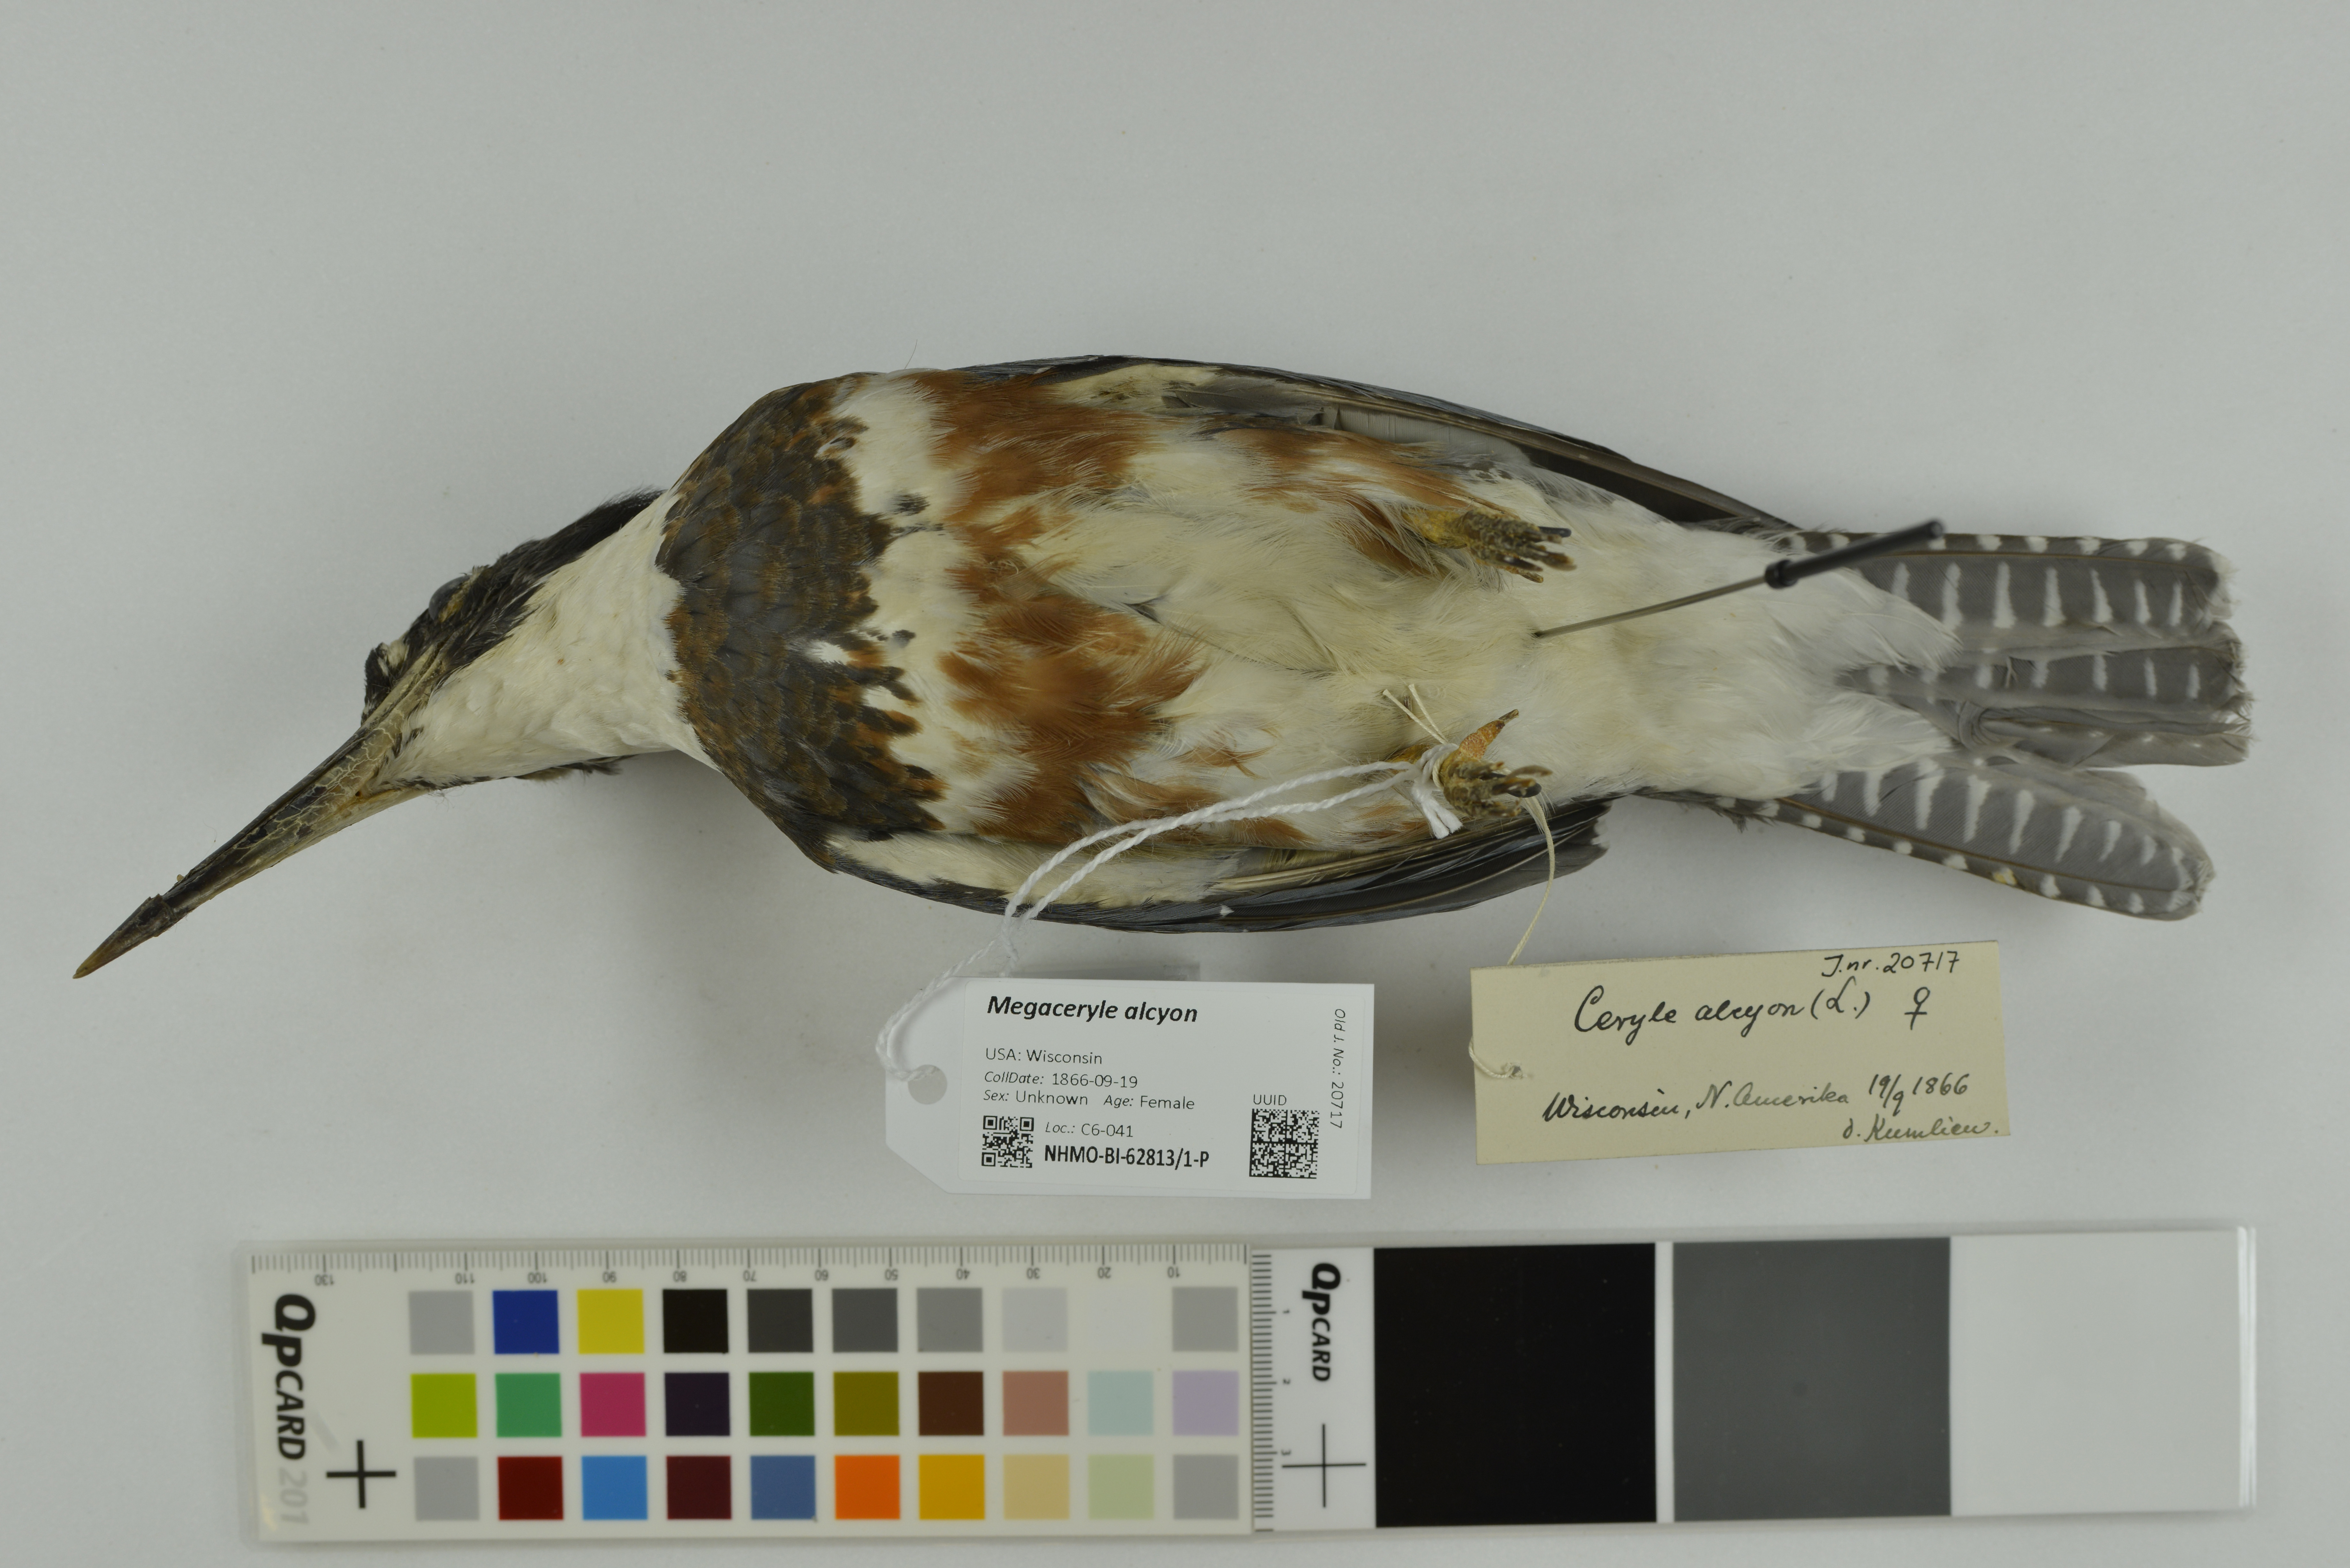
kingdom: Animalia
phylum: Chordata
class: Aves
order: Coraciiformes
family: Alcedinidae
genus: Megaceryle
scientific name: Megaceryle alcyon
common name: Belted kingfisher
